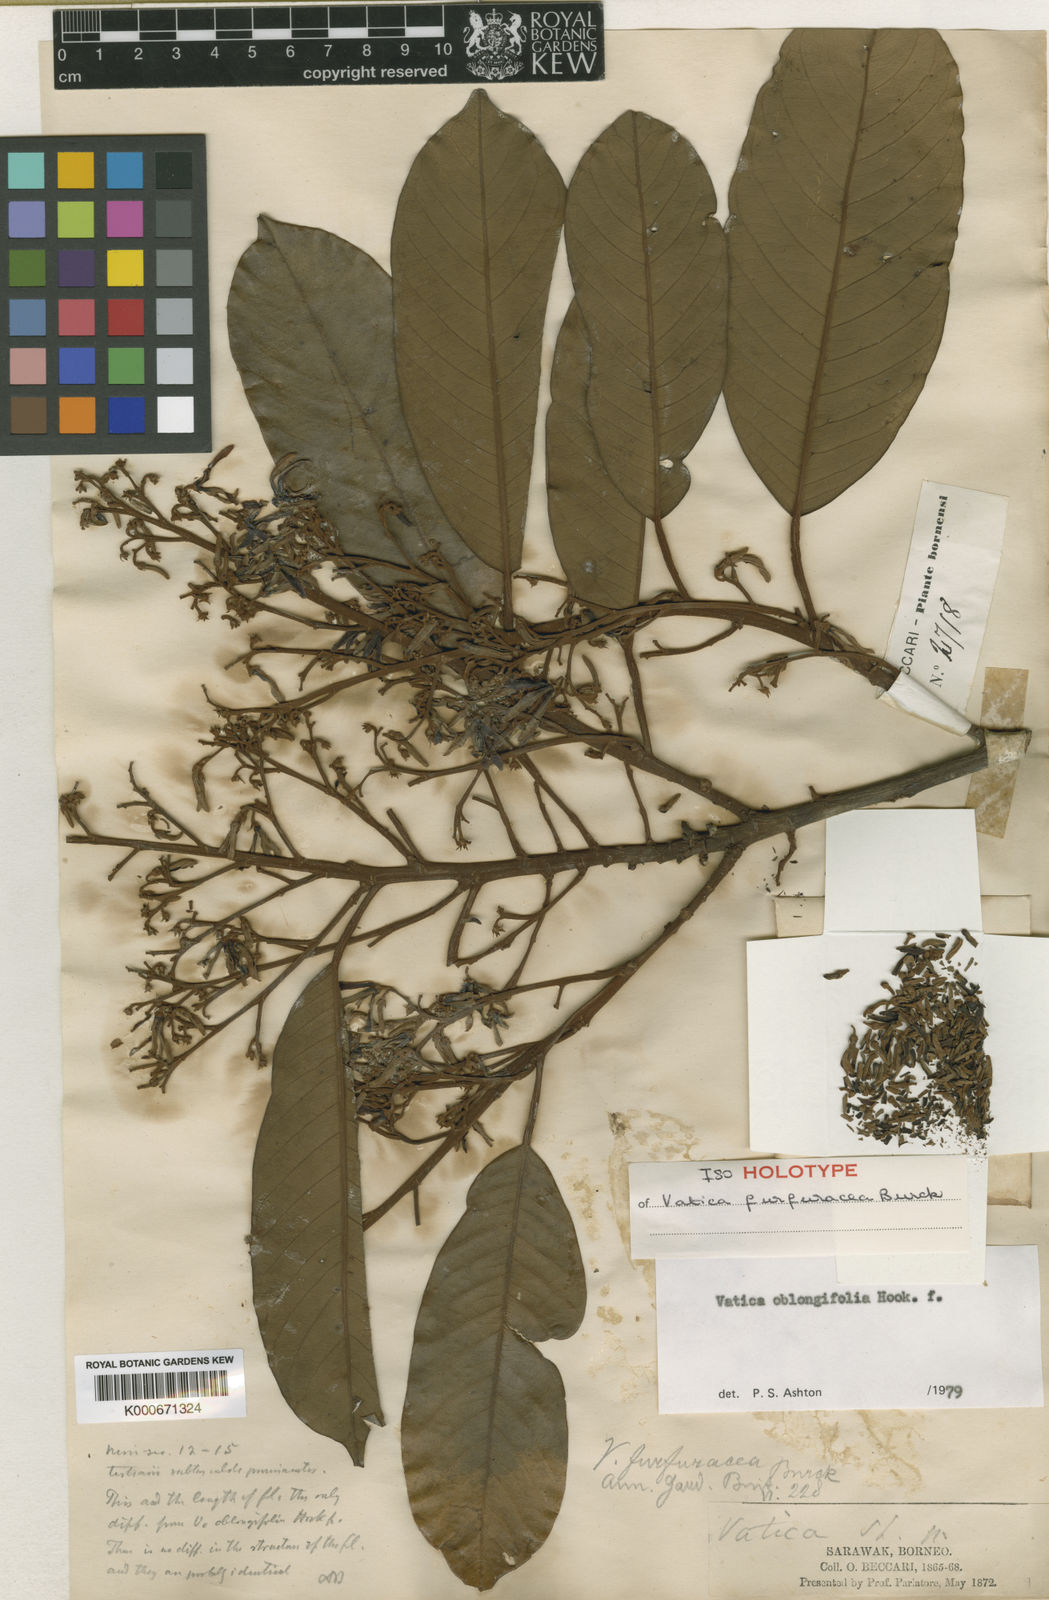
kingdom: Plantae
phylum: Tracheophyta
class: Magnoliopsida
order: Malvales
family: Dipterocarpaceae
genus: Vatica
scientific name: Vatica oblongifolia
